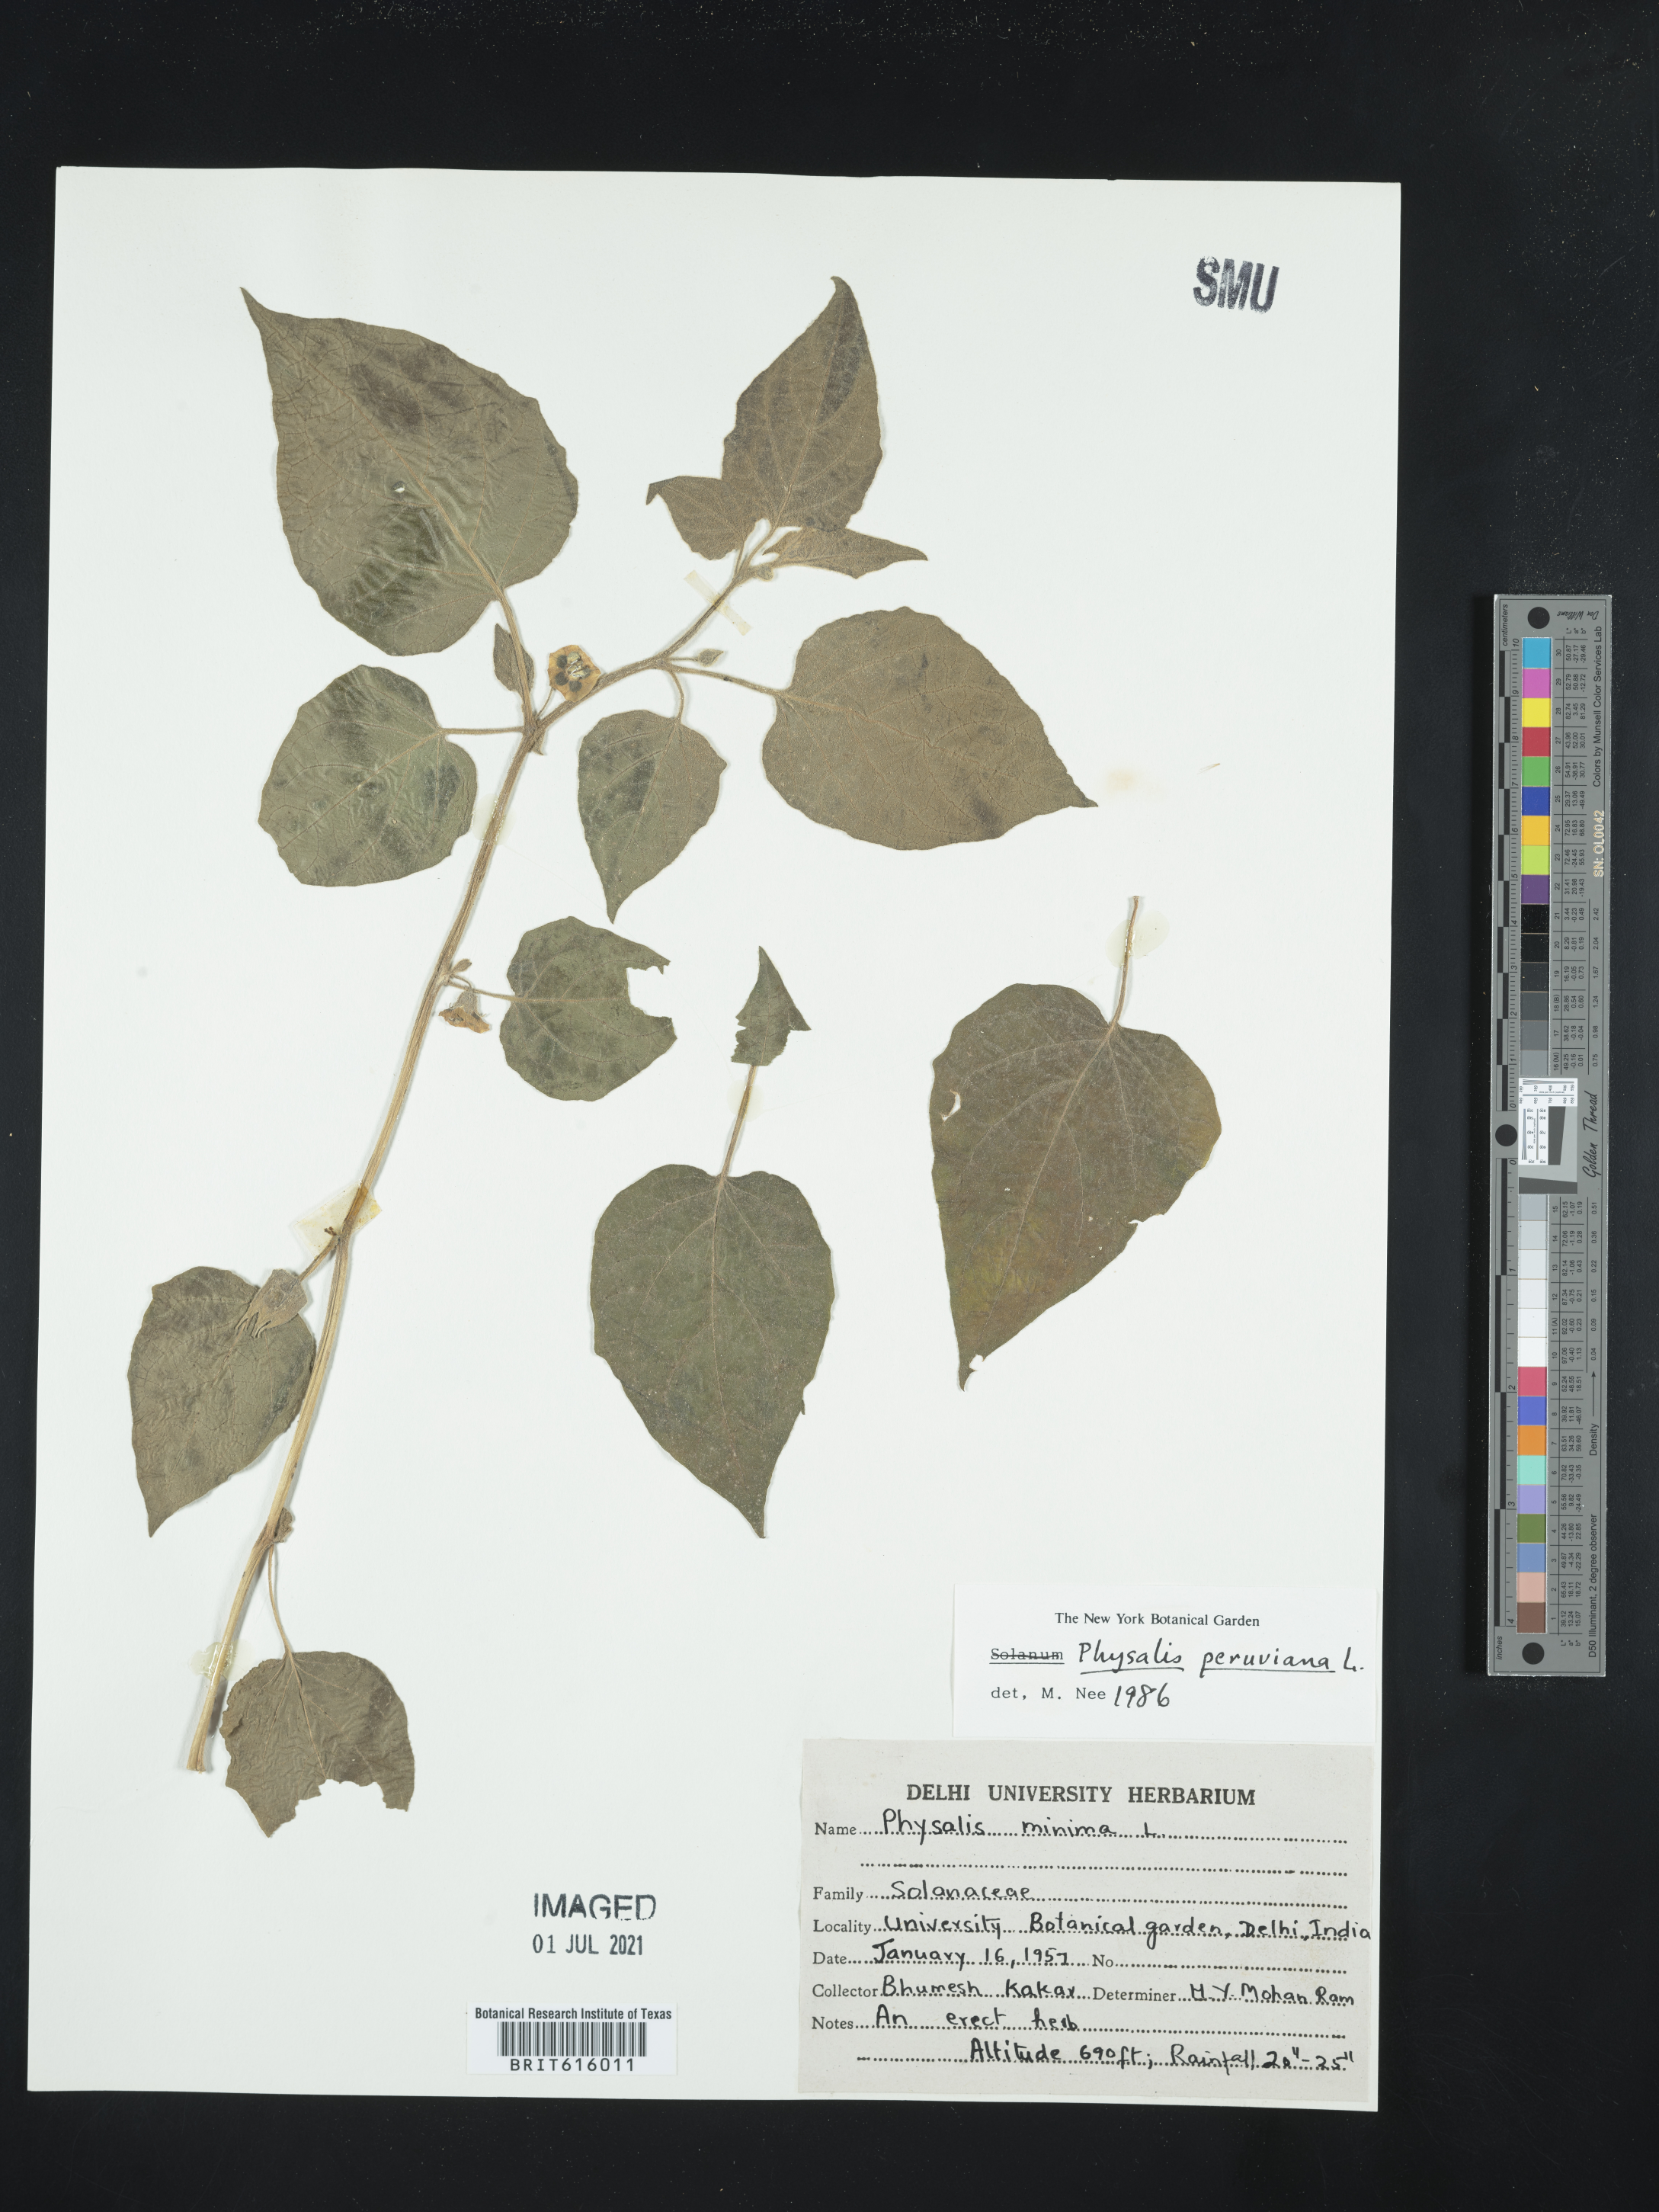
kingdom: Plantae
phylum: Tracheophyta
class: Magnoliopsida
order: Solanales
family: Solanaceae
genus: Physalis
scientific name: Physalis peruviana
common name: Cape-gooseberry
